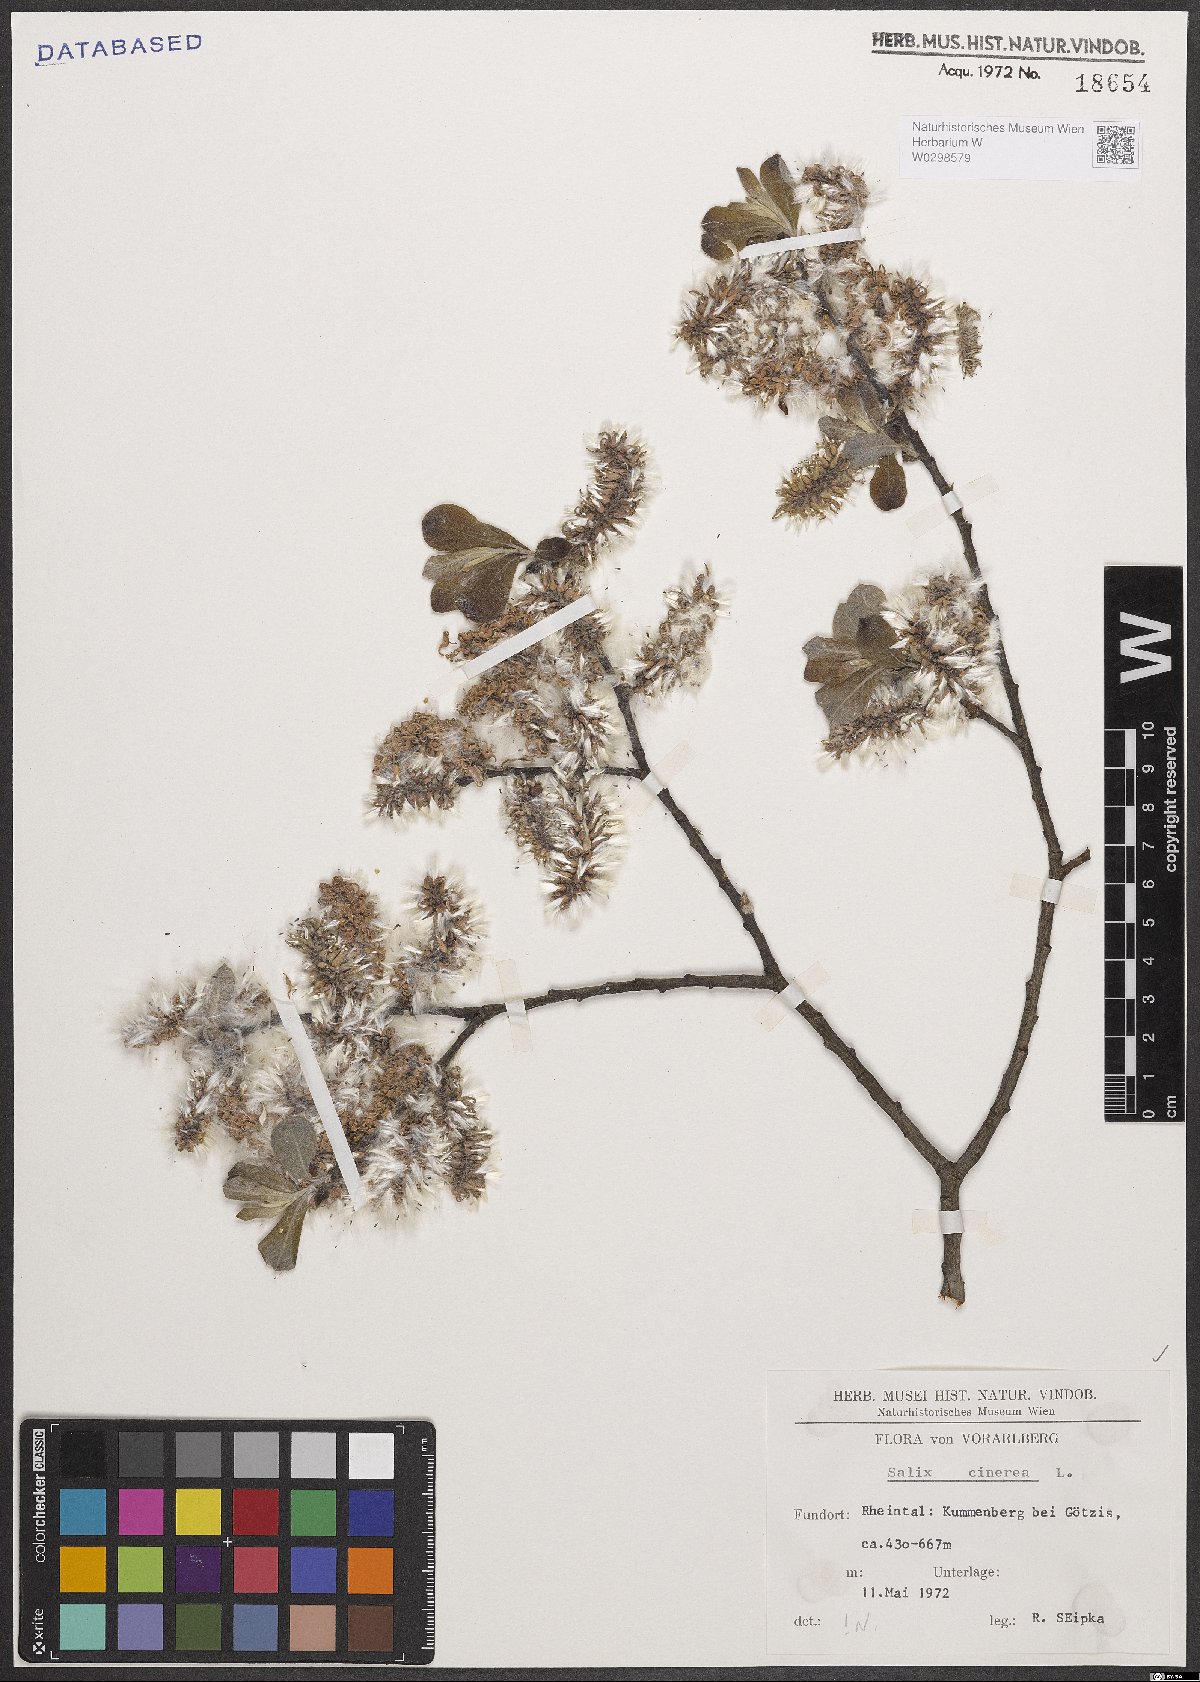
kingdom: Plantae
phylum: Tracheophyta
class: Magnoliopsida
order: Malpighiales
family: Salicaceae
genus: Salix
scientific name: Salix cinerea
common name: Common sallow
